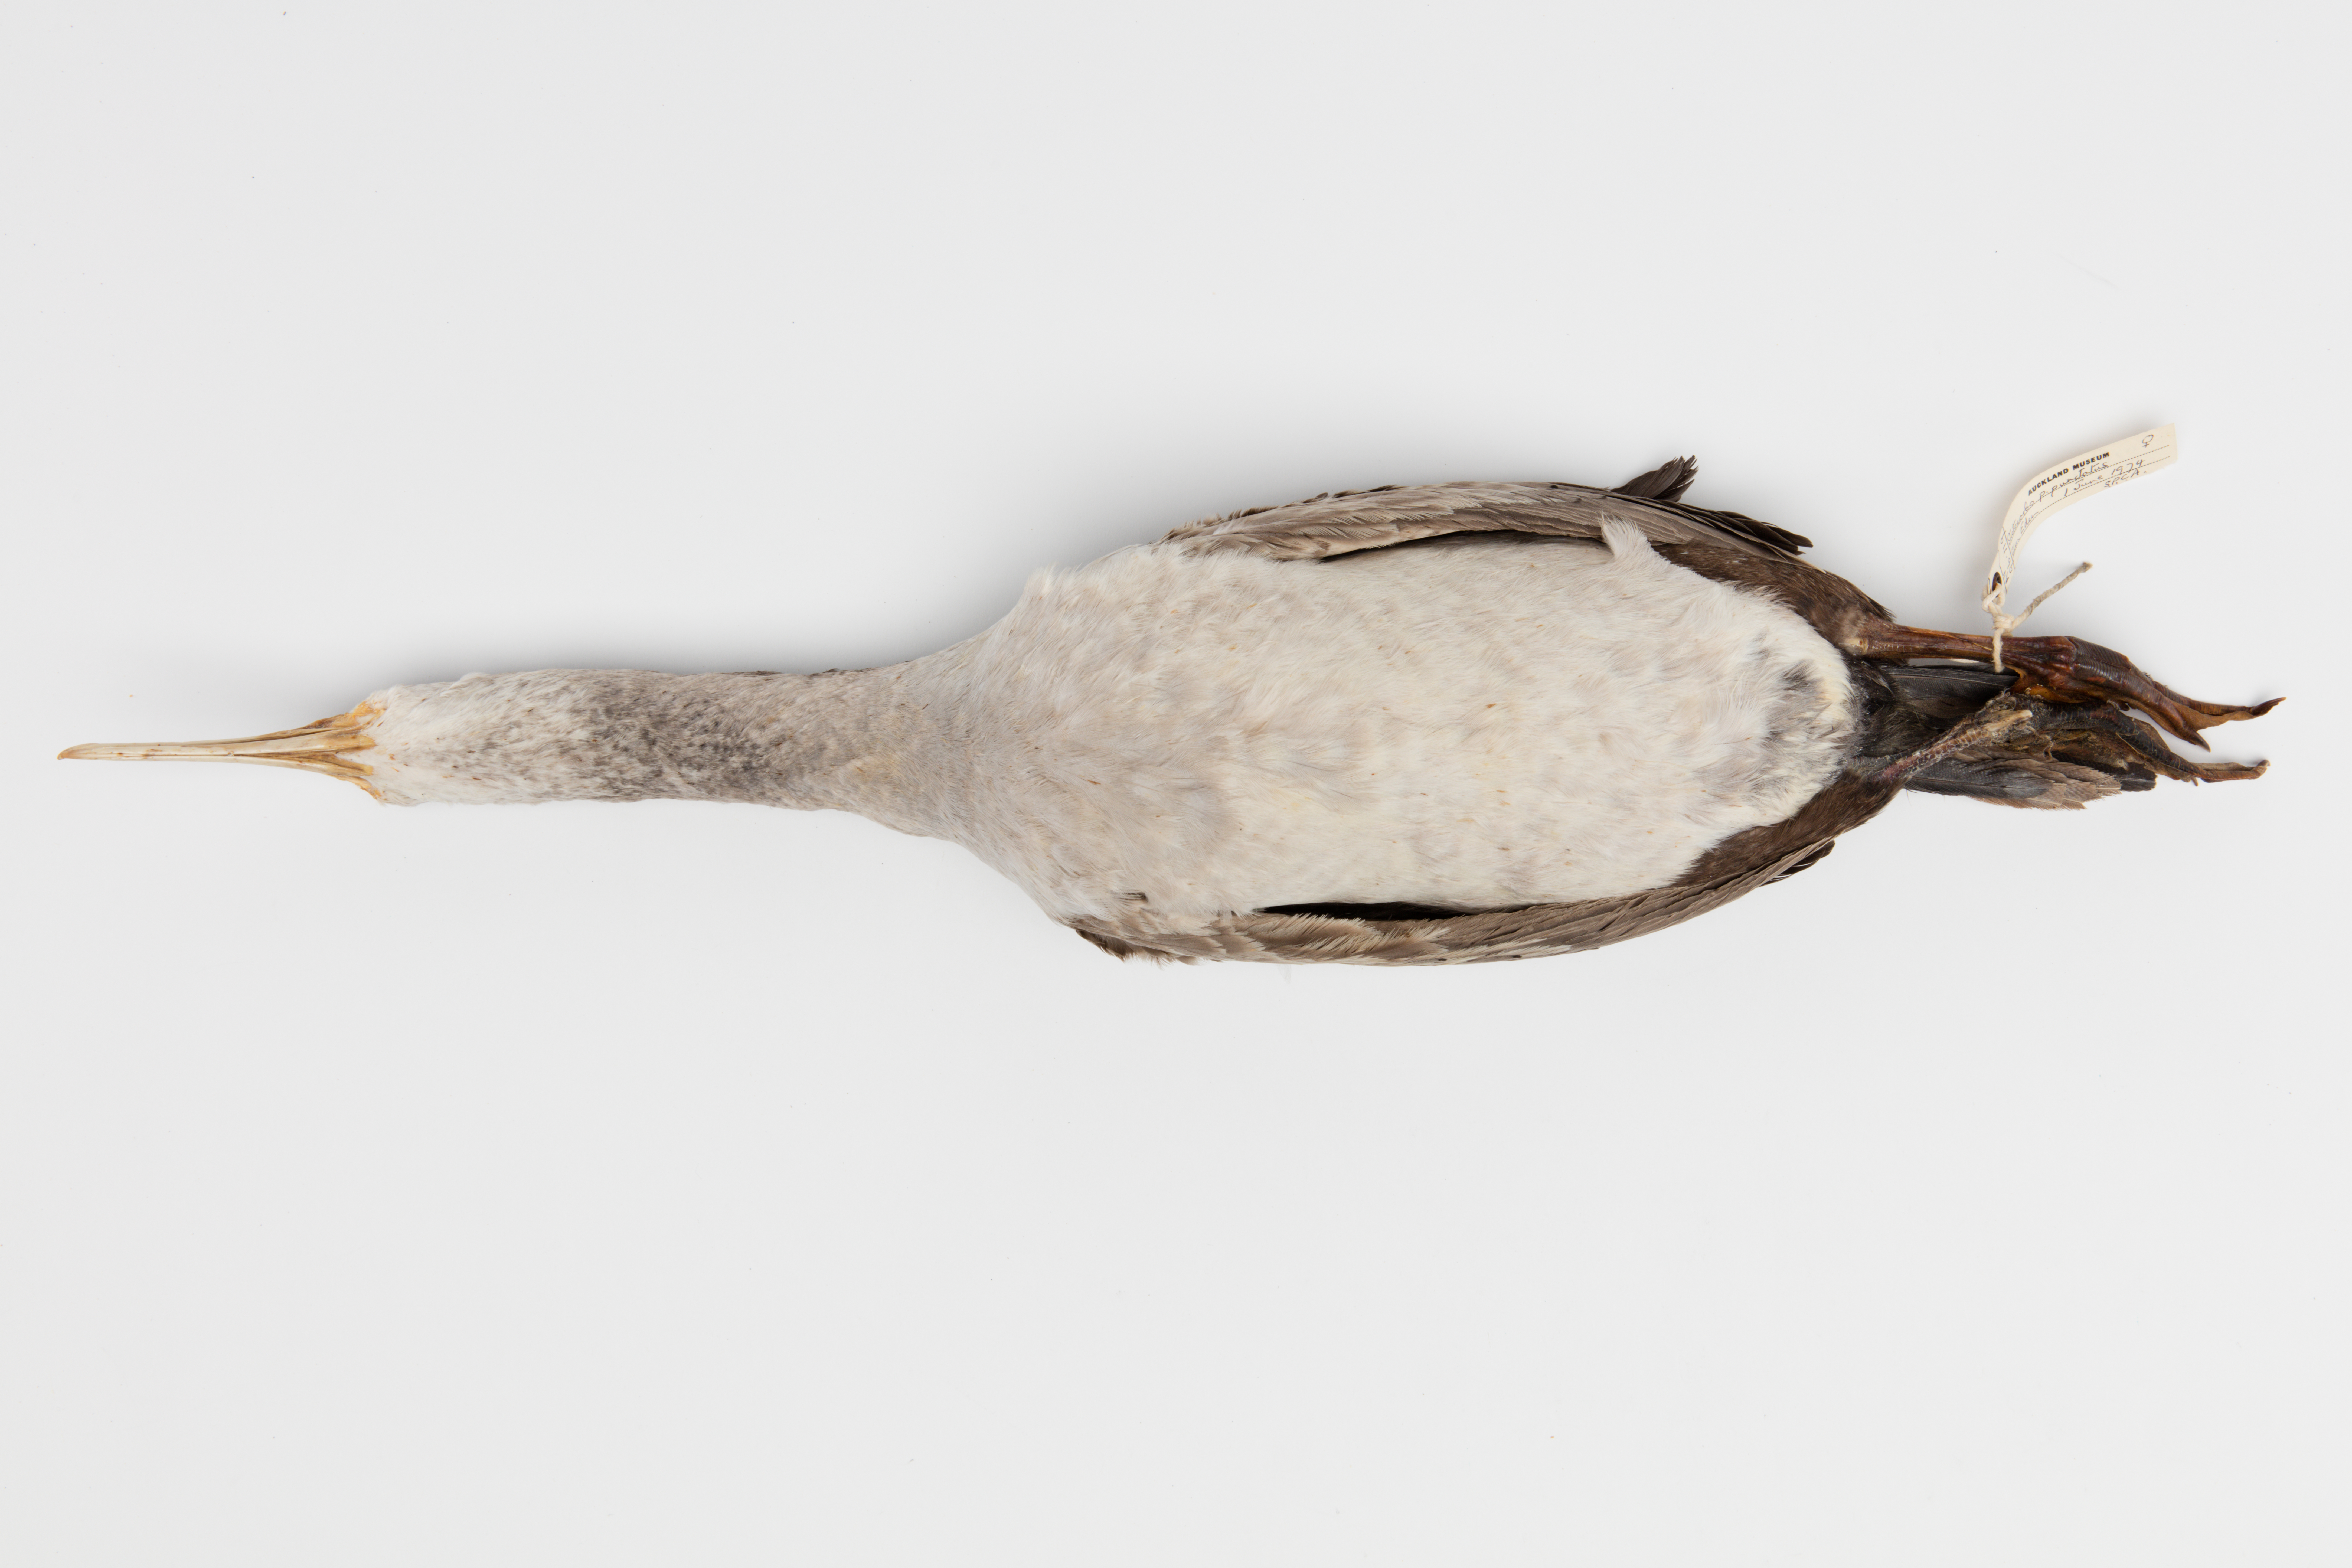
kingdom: Animalia
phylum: Chordata
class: Aves
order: Suliformes
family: Phalacrocoracidae
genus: Phalacrocorax
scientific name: Phalacrocorax punctatus
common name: Spotted shag
